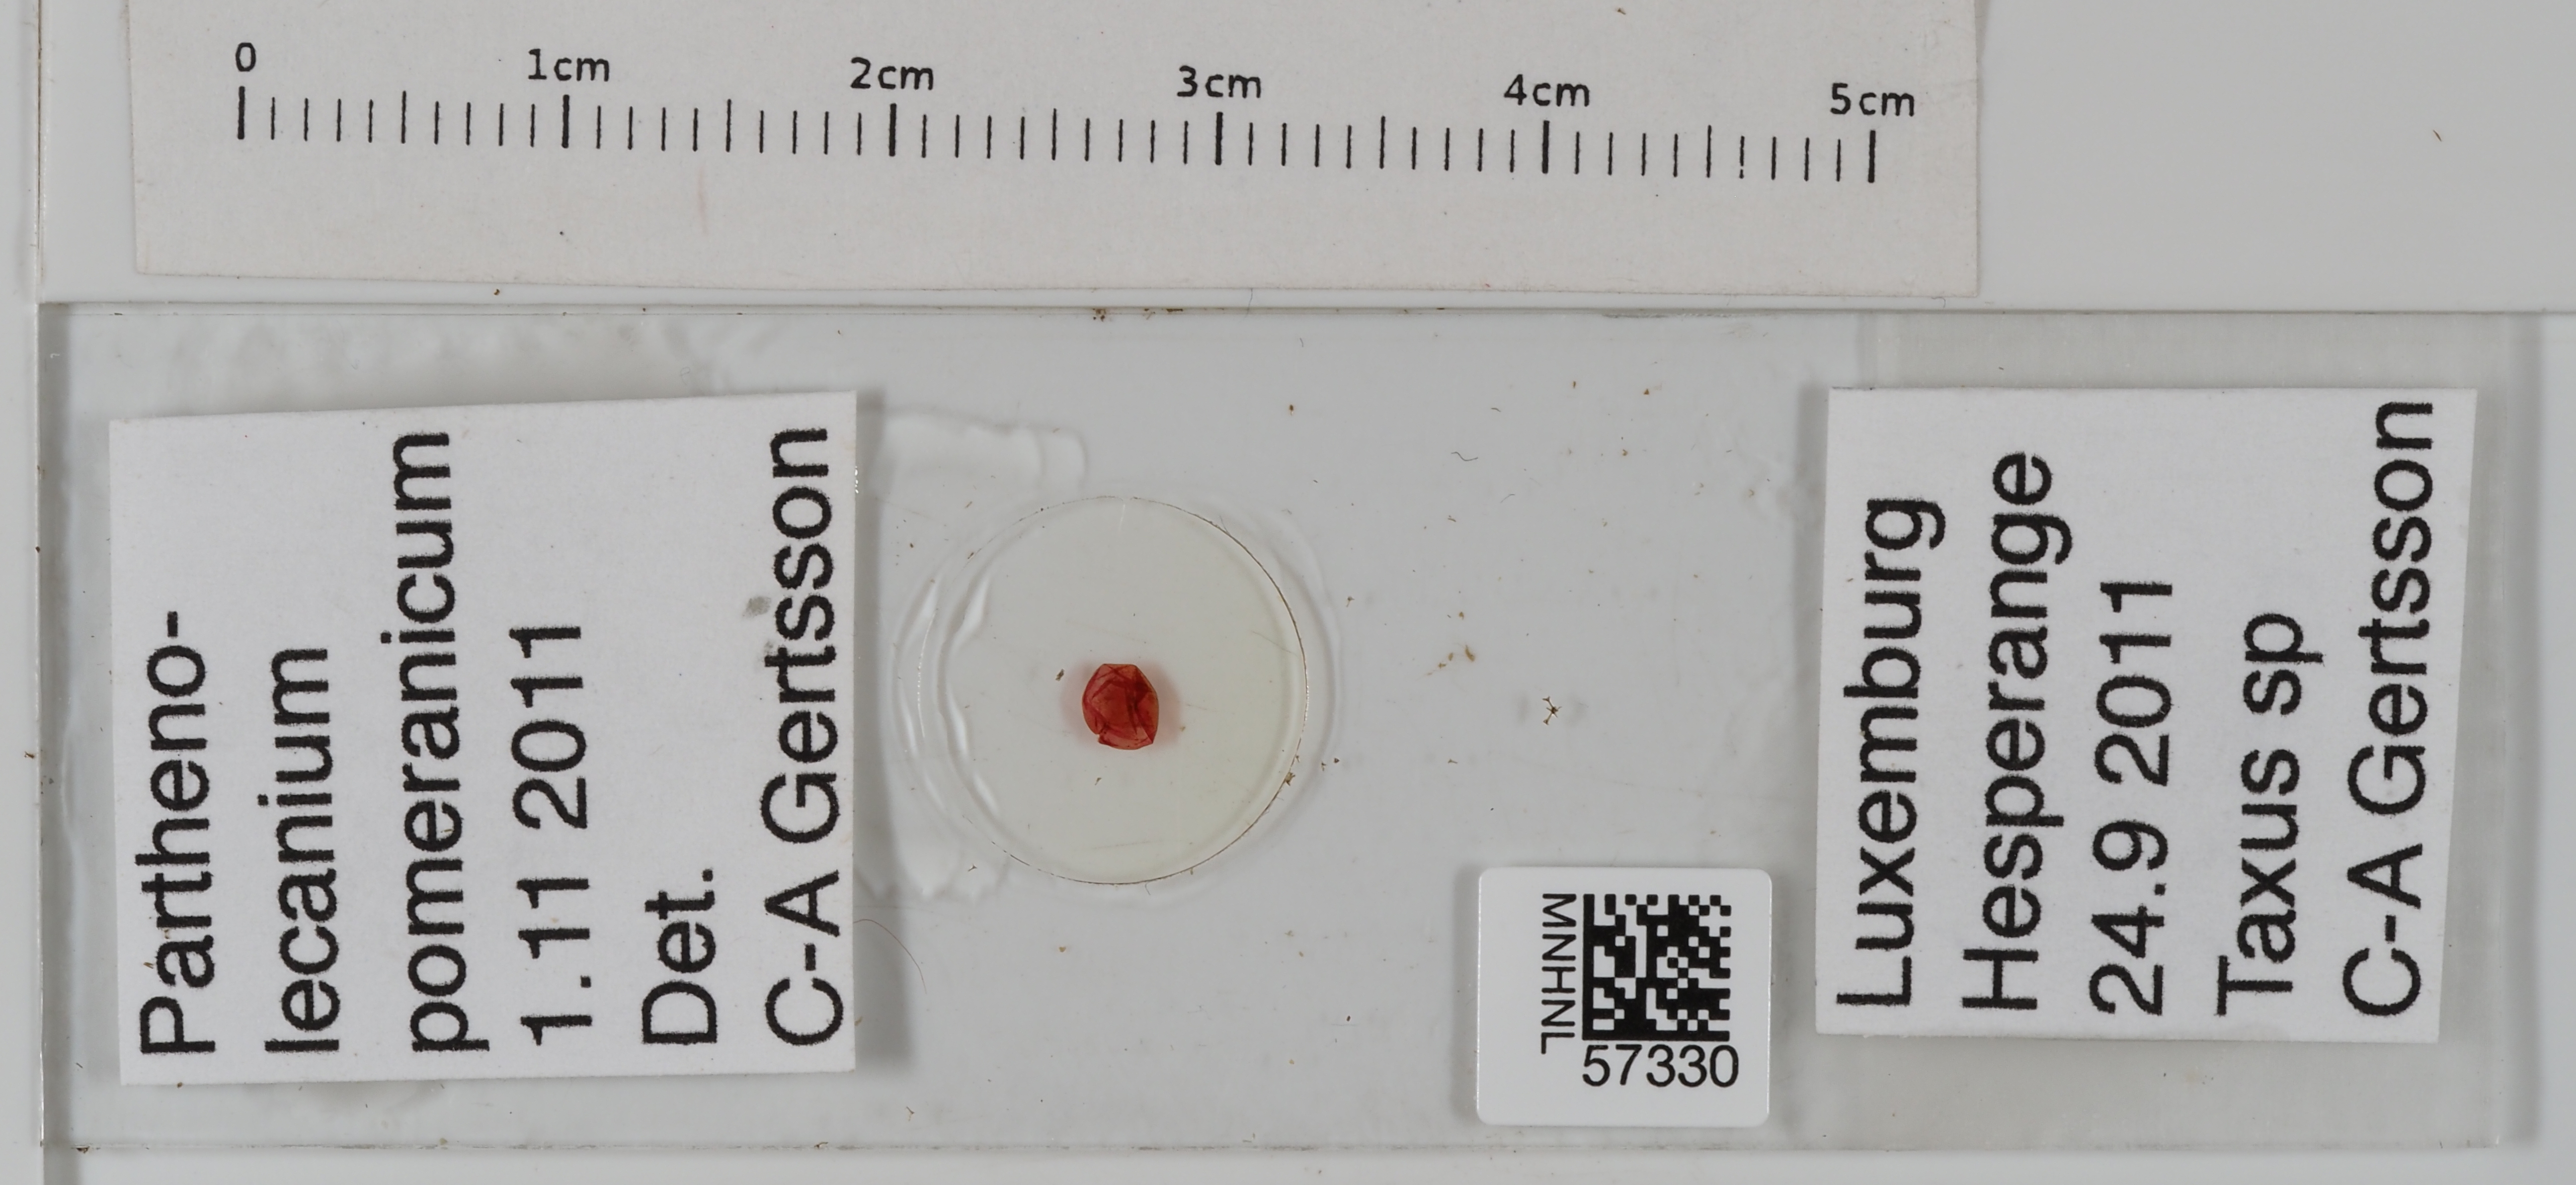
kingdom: Animalia
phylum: Arthropoda
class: Insecta
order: Hemiptera
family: Coccidae
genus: Parthenolecanium
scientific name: Parthenolecanium pomeranicum
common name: Yew scale
